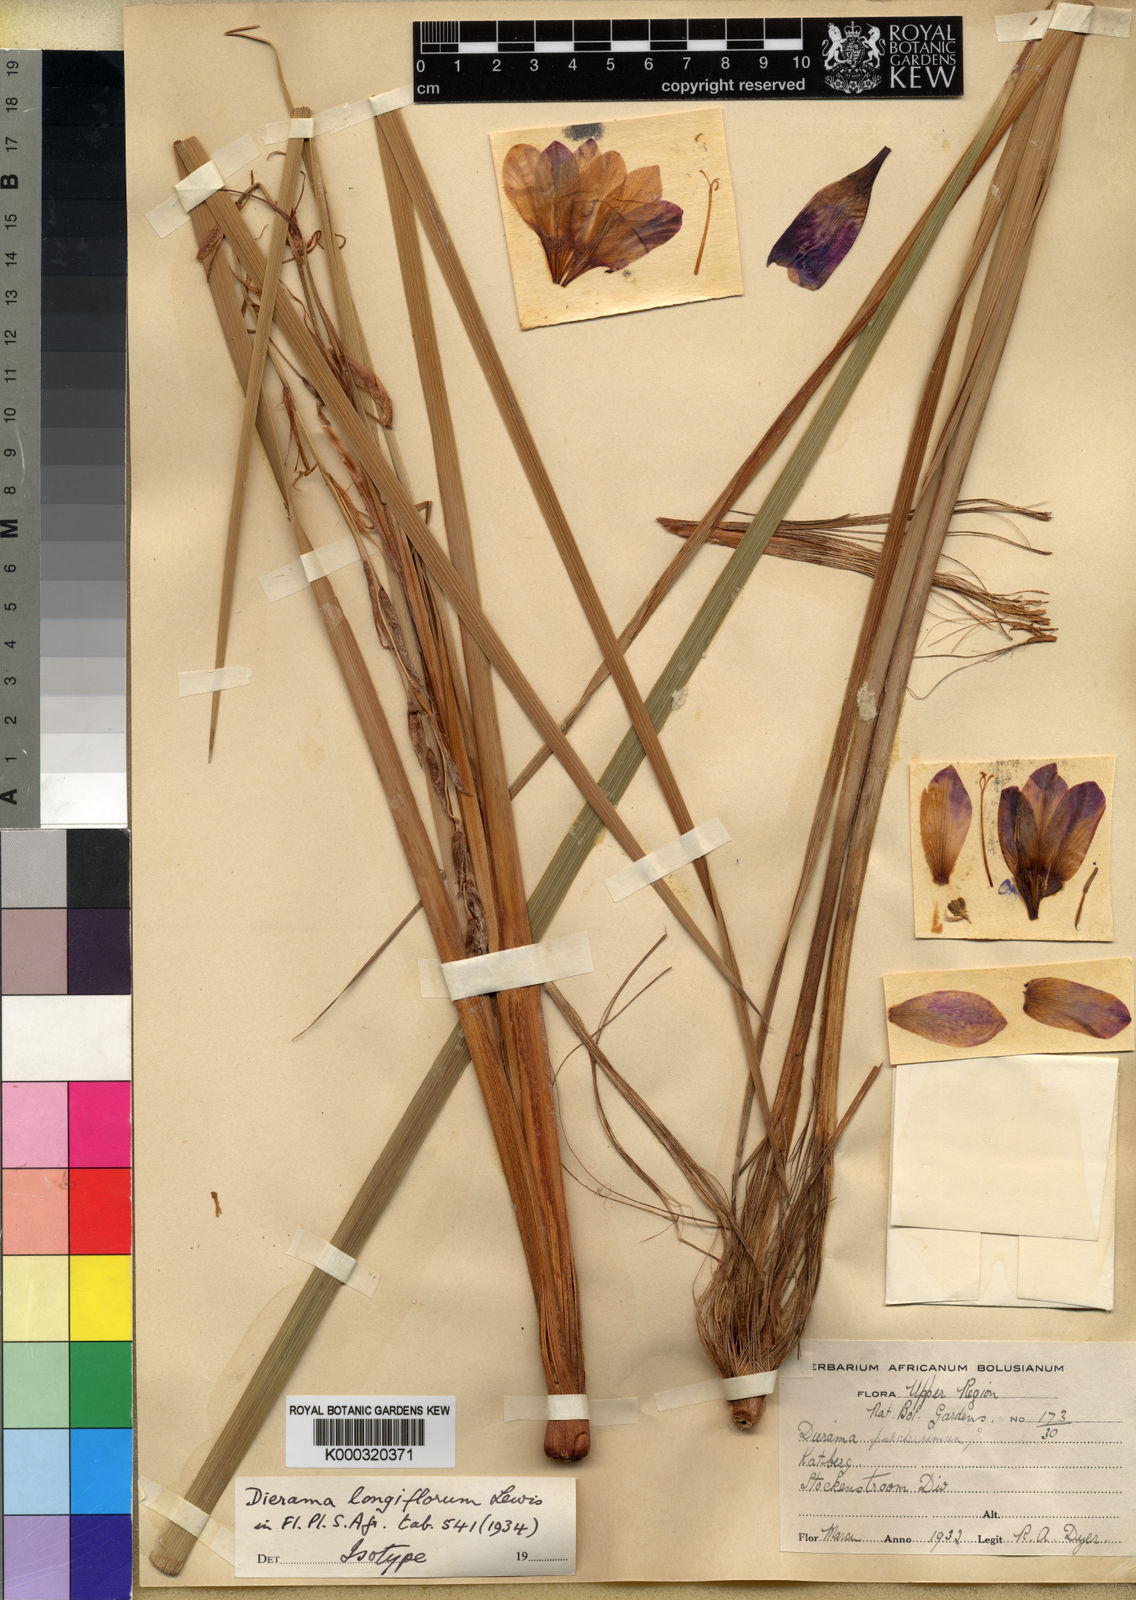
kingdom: Plantae
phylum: Tracheophyta
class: Liliopsida
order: Asparagales
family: Iridaceae
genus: Dierama
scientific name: Dierama pulcherrimum
